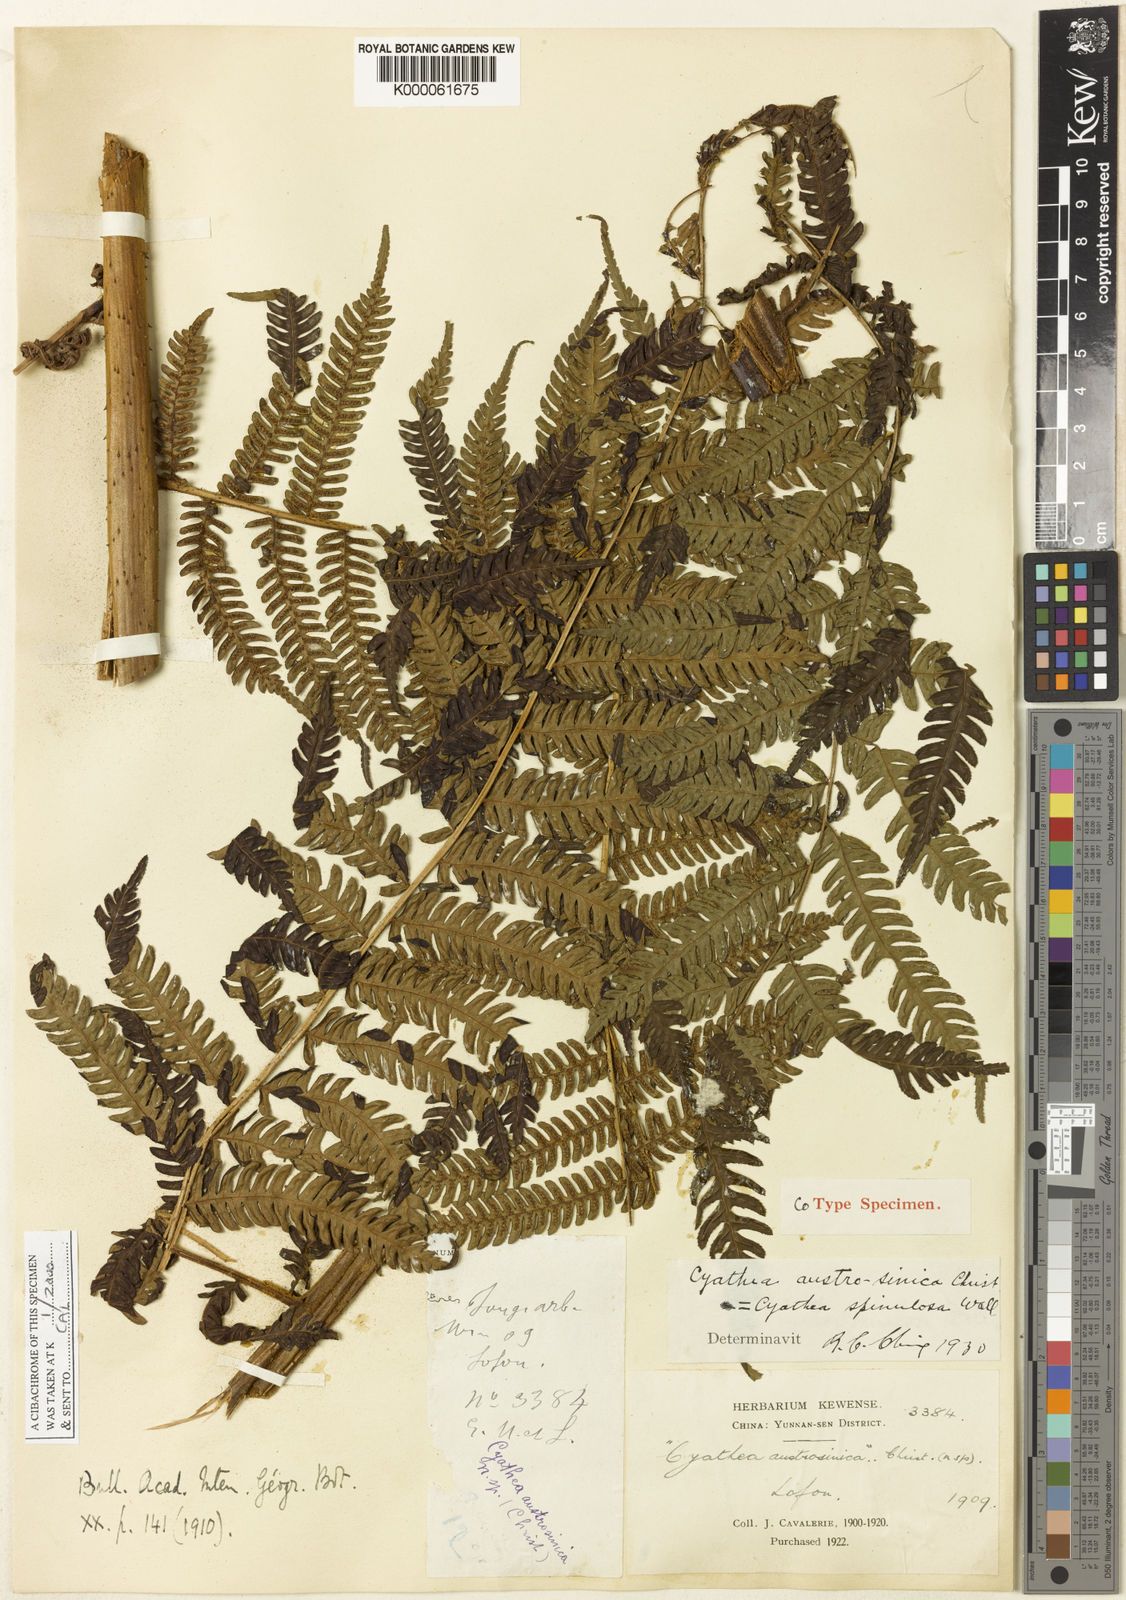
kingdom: Plantae
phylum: Tracheophyta
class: Polypodiopsida
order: Cyatheales
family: Cyatheaceae
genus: Alsophila
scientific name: Alsophila spinulosa
